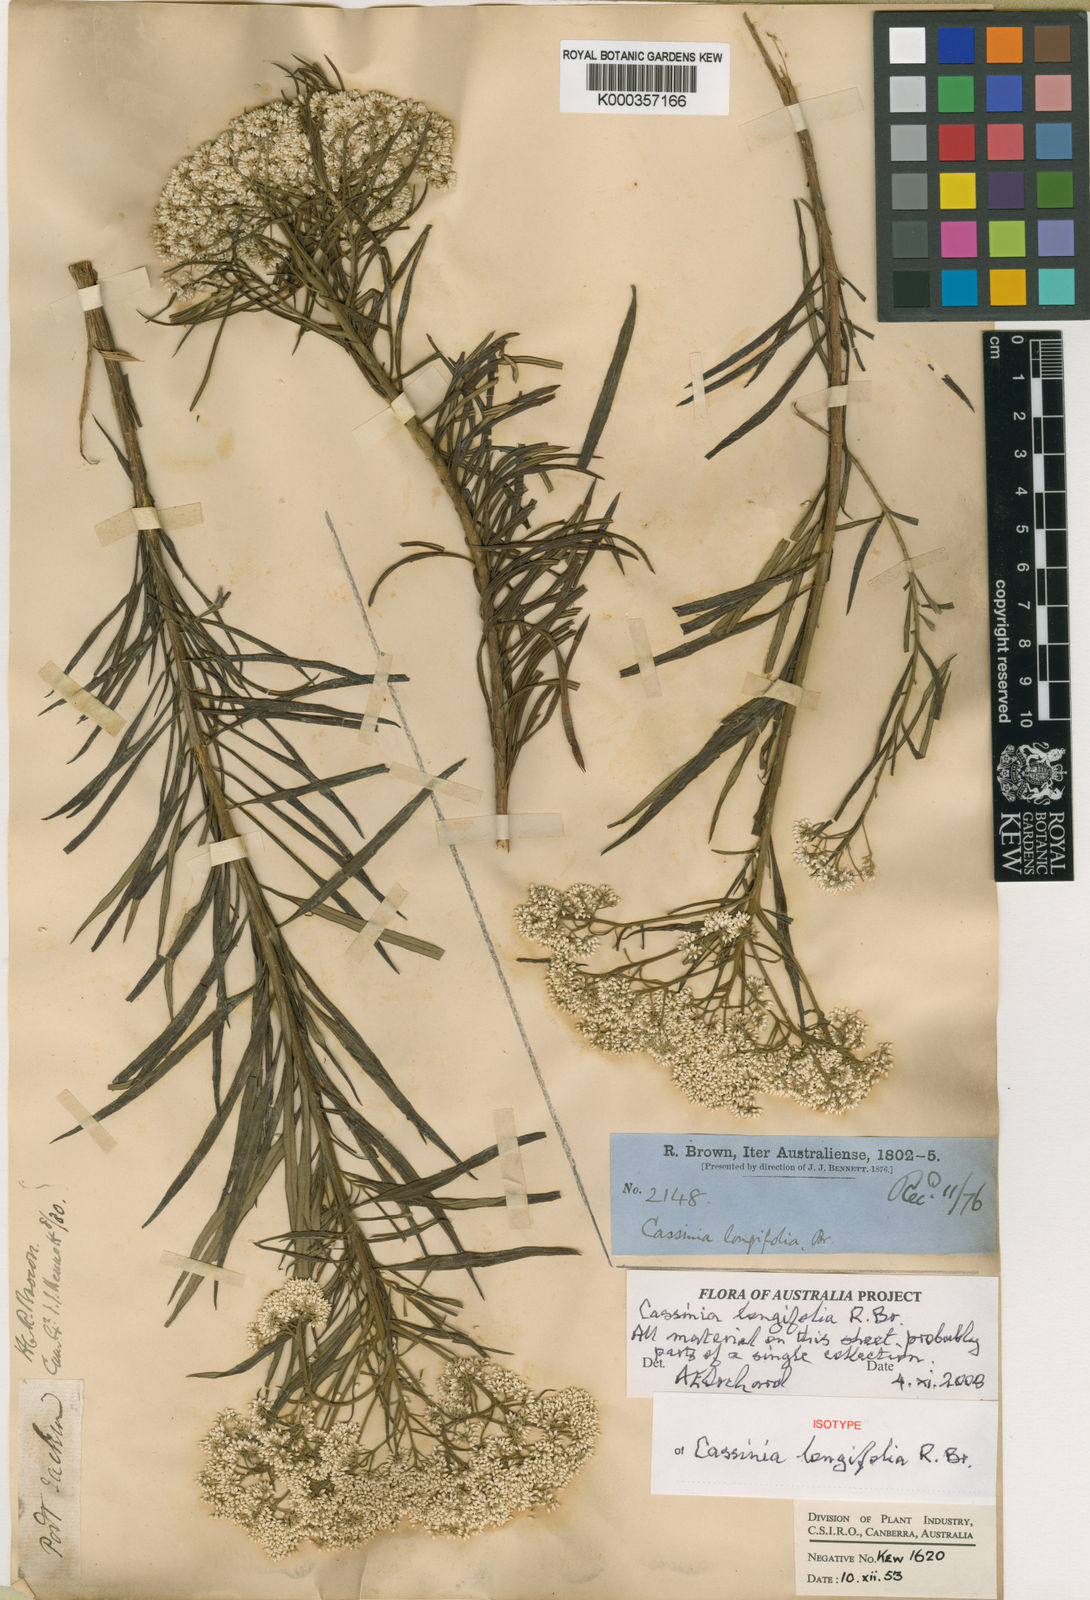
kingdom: Plantae
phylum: Tracheophyta
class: Magnoliopsida
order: Asterales
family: Asteraceae
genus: Cassinia
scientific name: Cassinia longifolia
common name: Longleaf-dogwood
